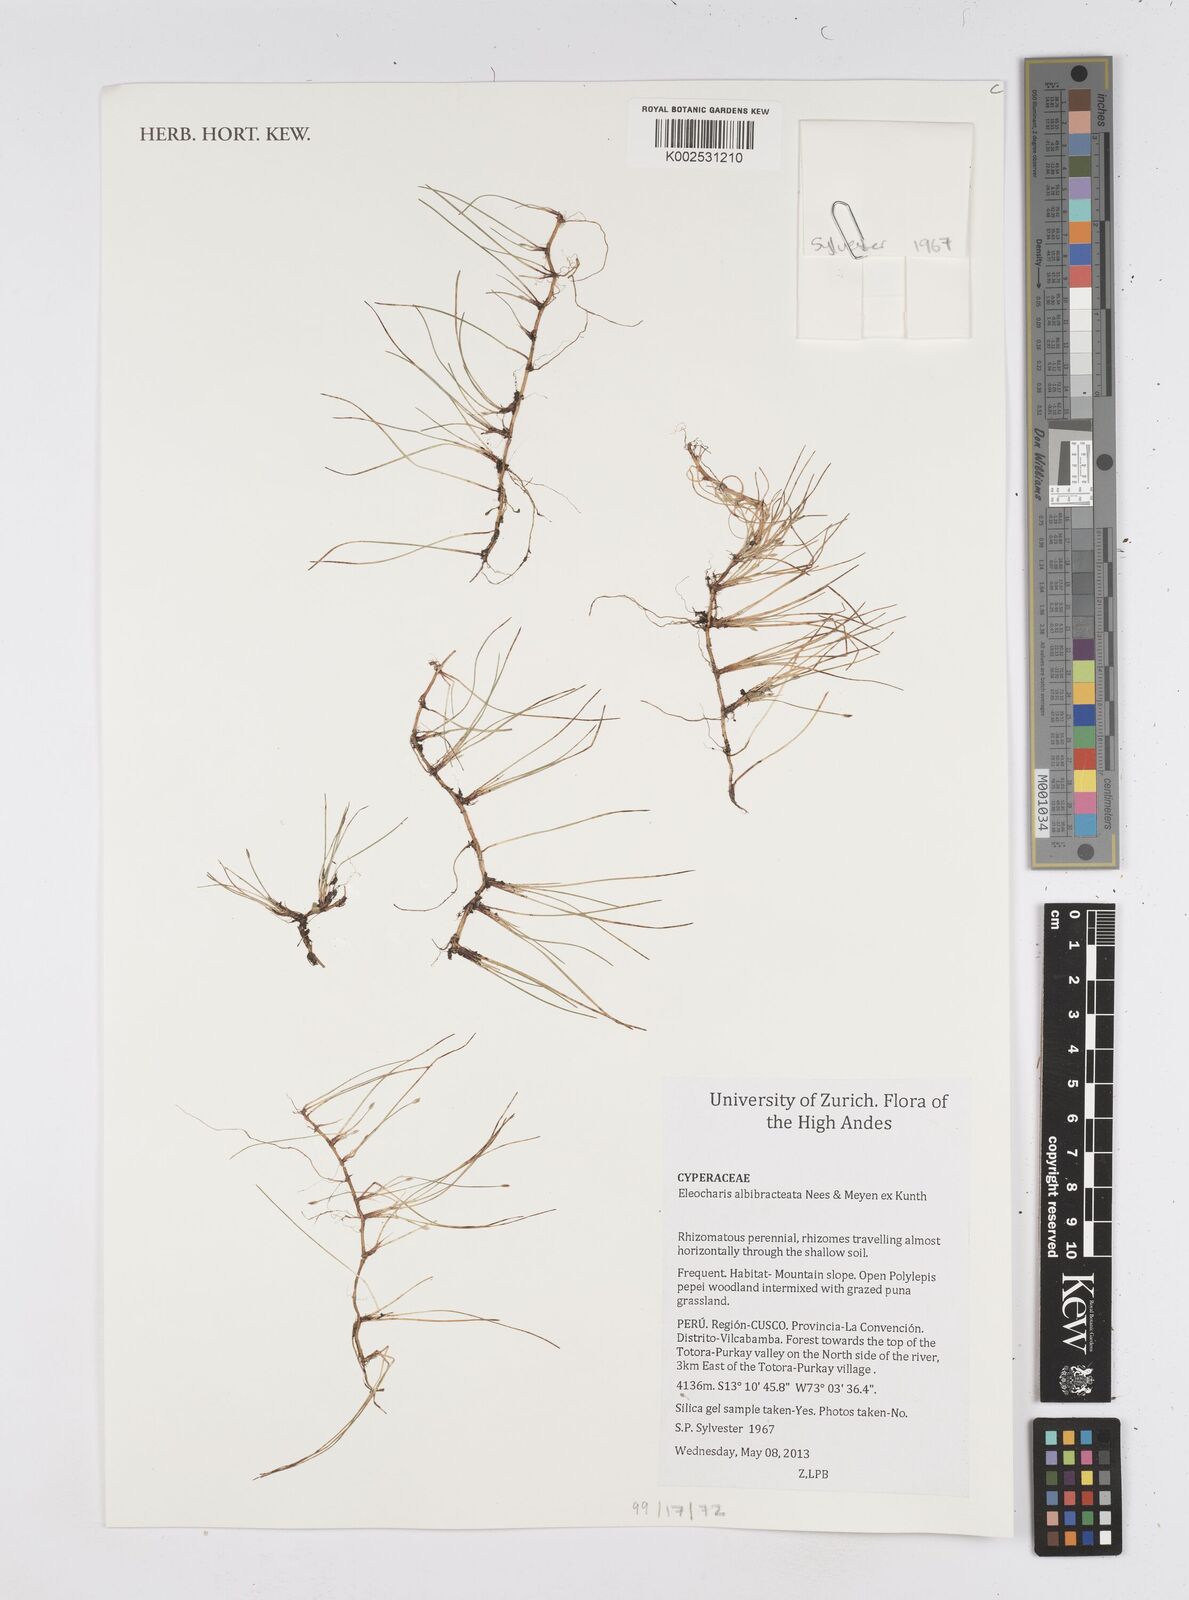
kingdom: Plantae
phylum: Tracheophyta
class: Liliopsida
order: Poales
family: Cyperaceae
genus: Eleocharis
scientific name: Eleocharis albibracteata
